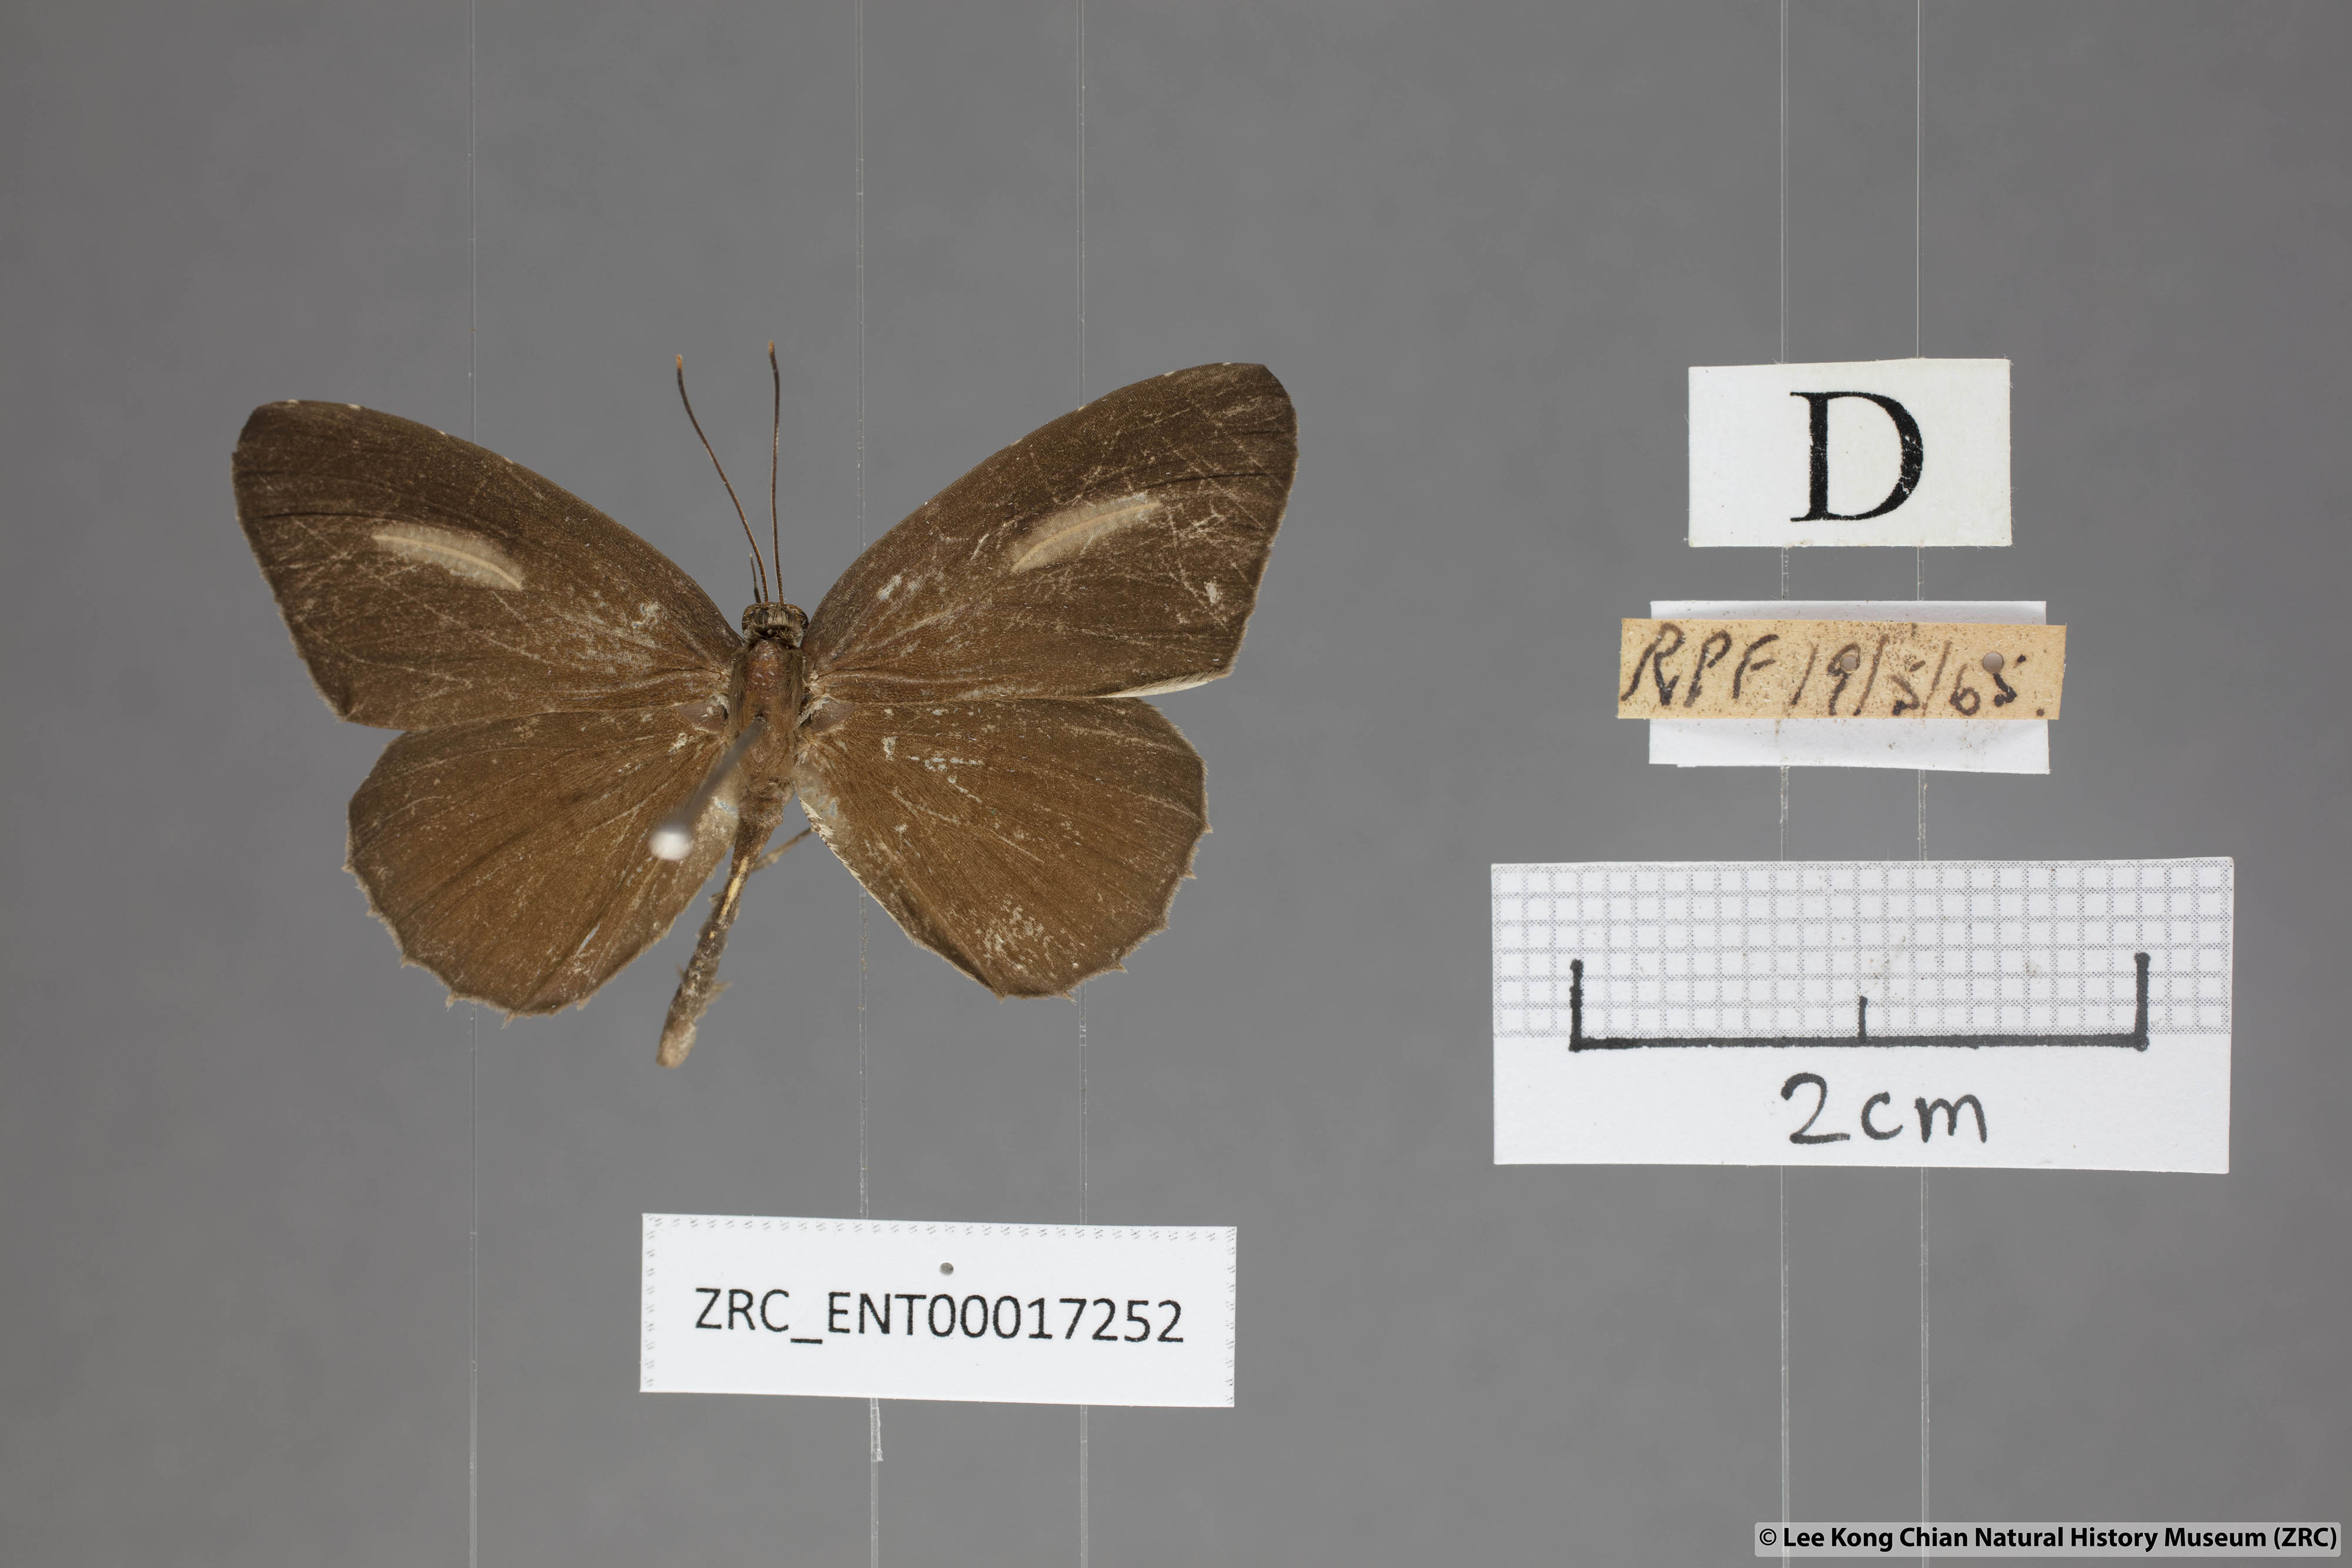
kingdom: Animalia
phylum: Arthropoda
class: Insecta
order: Lepidoptera
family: Lycaenidae
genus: Allotinus
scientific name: Allotinus horsfieldi
